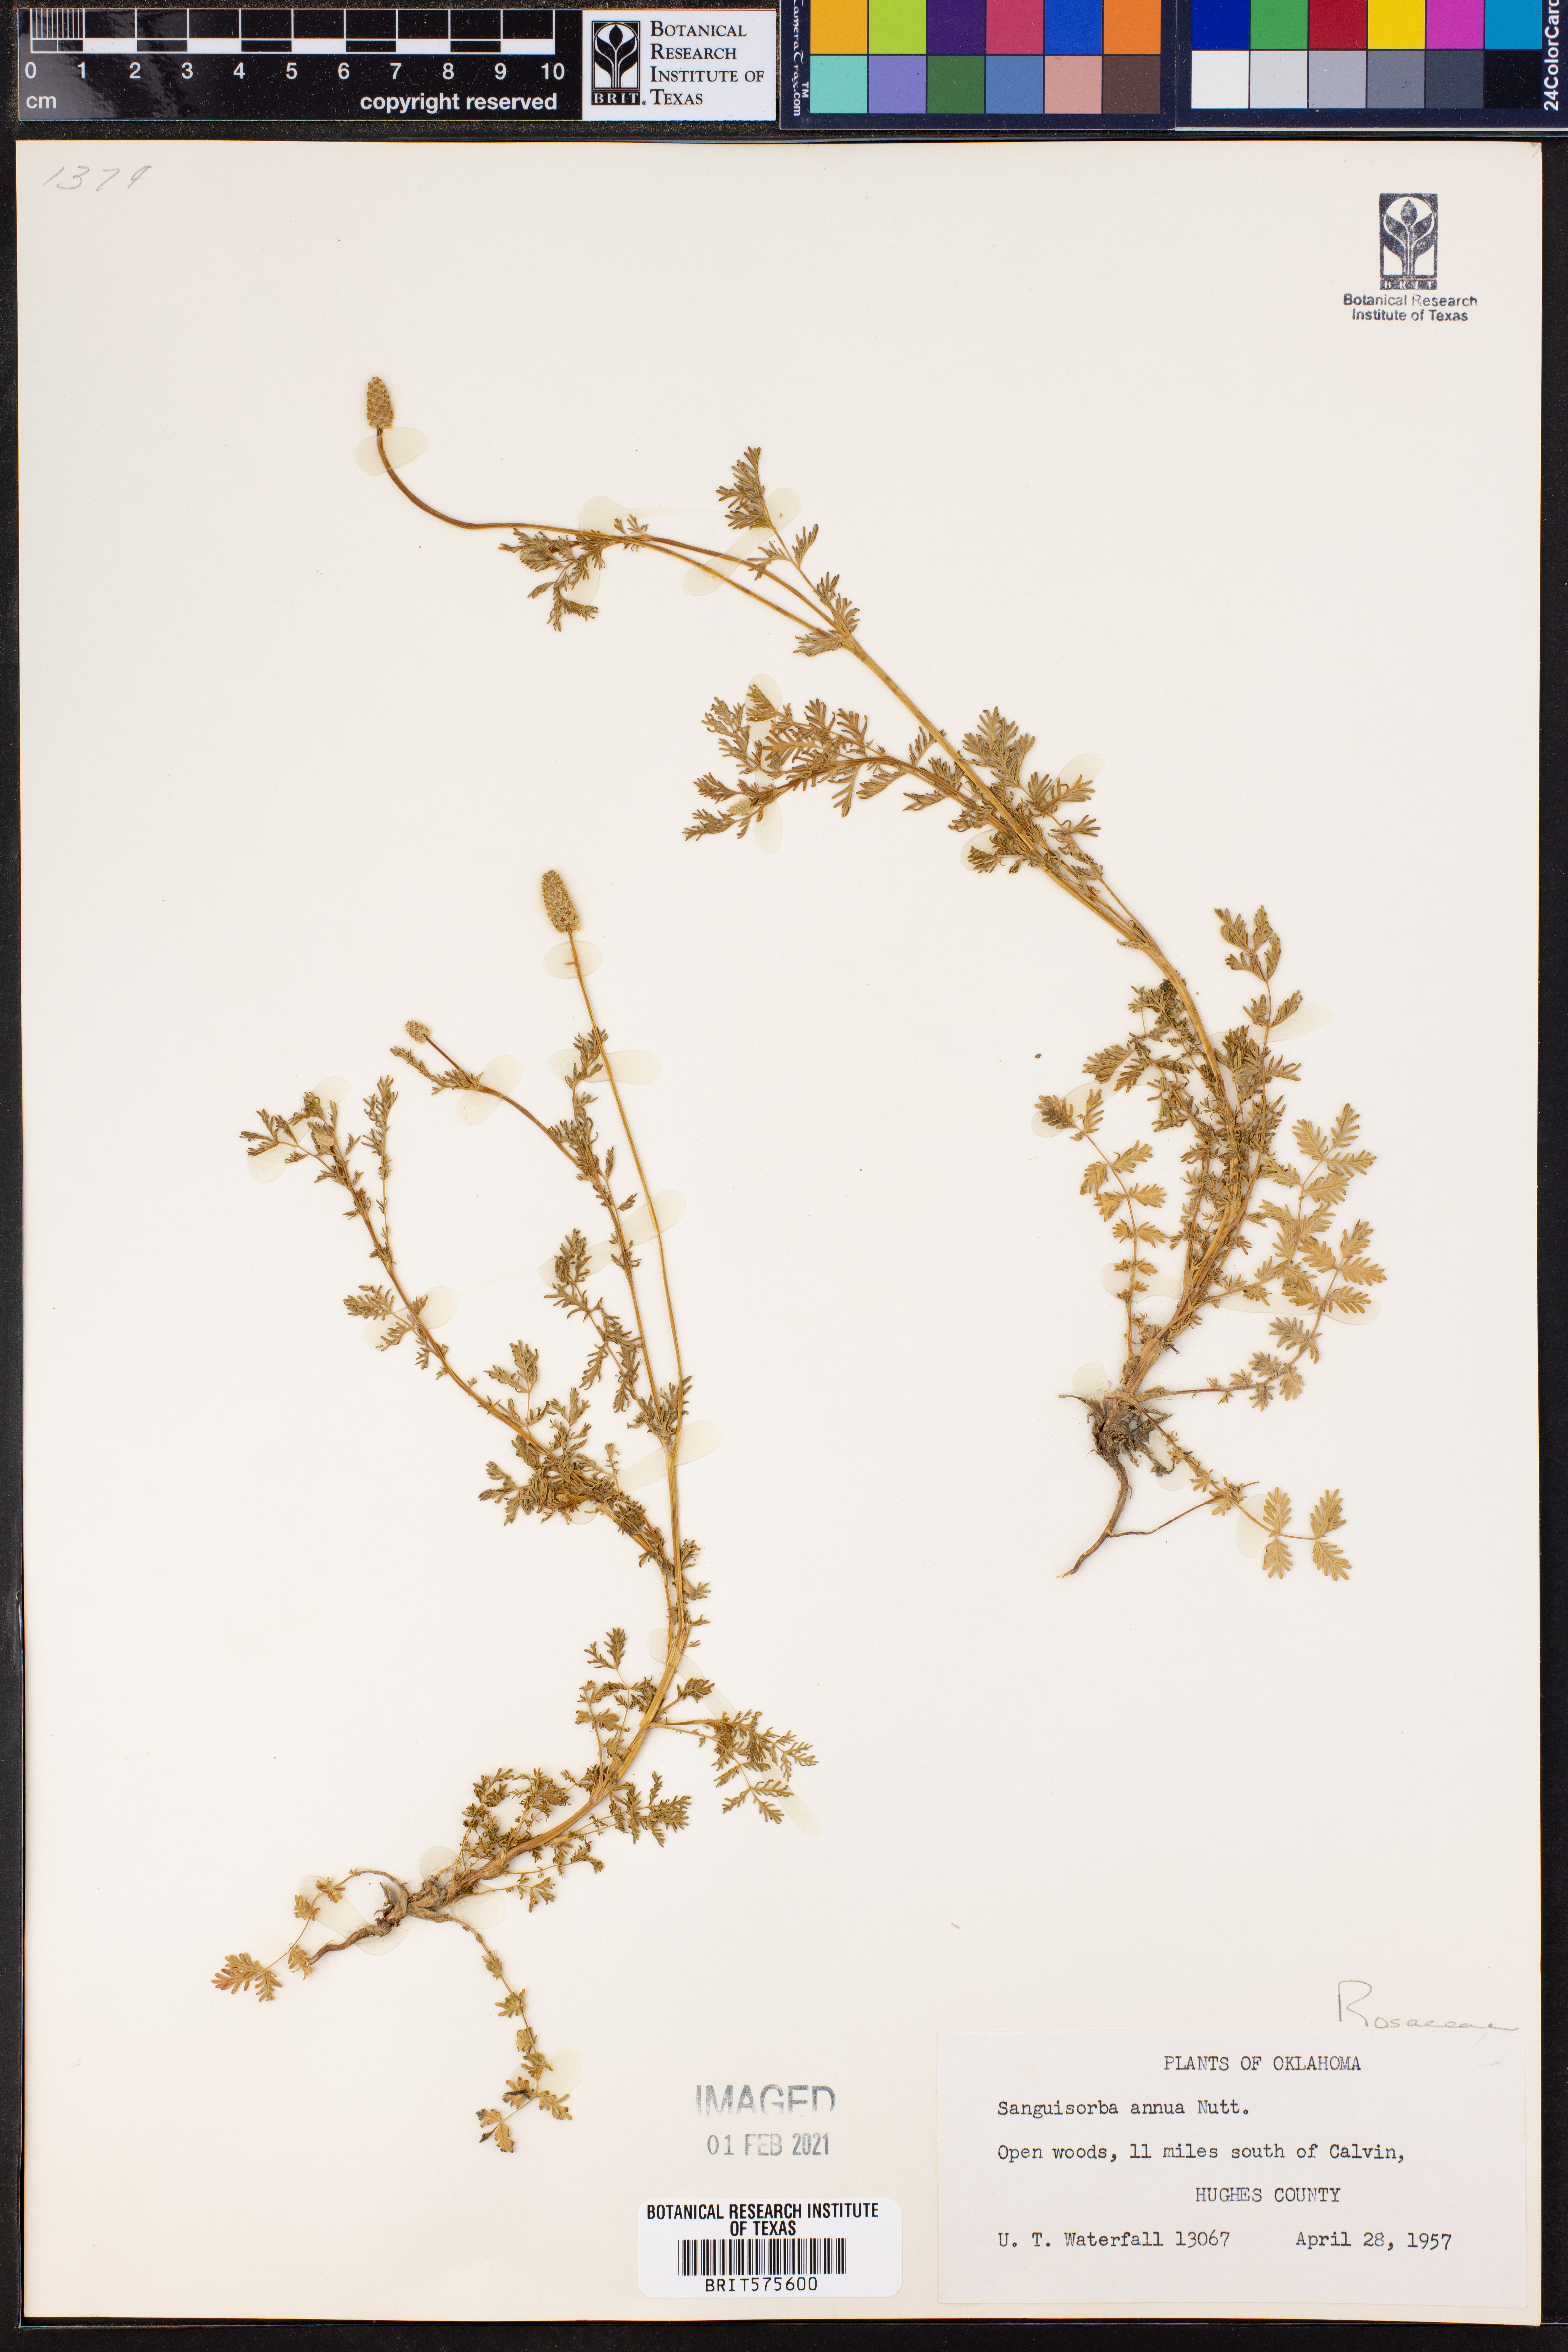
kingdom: Plantae
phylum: Tracheophyta
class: Magnoliopsida
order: Rosales
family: Rosaceae
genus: Poteridium
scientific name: Poteridium annuum
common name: Annual burnet
